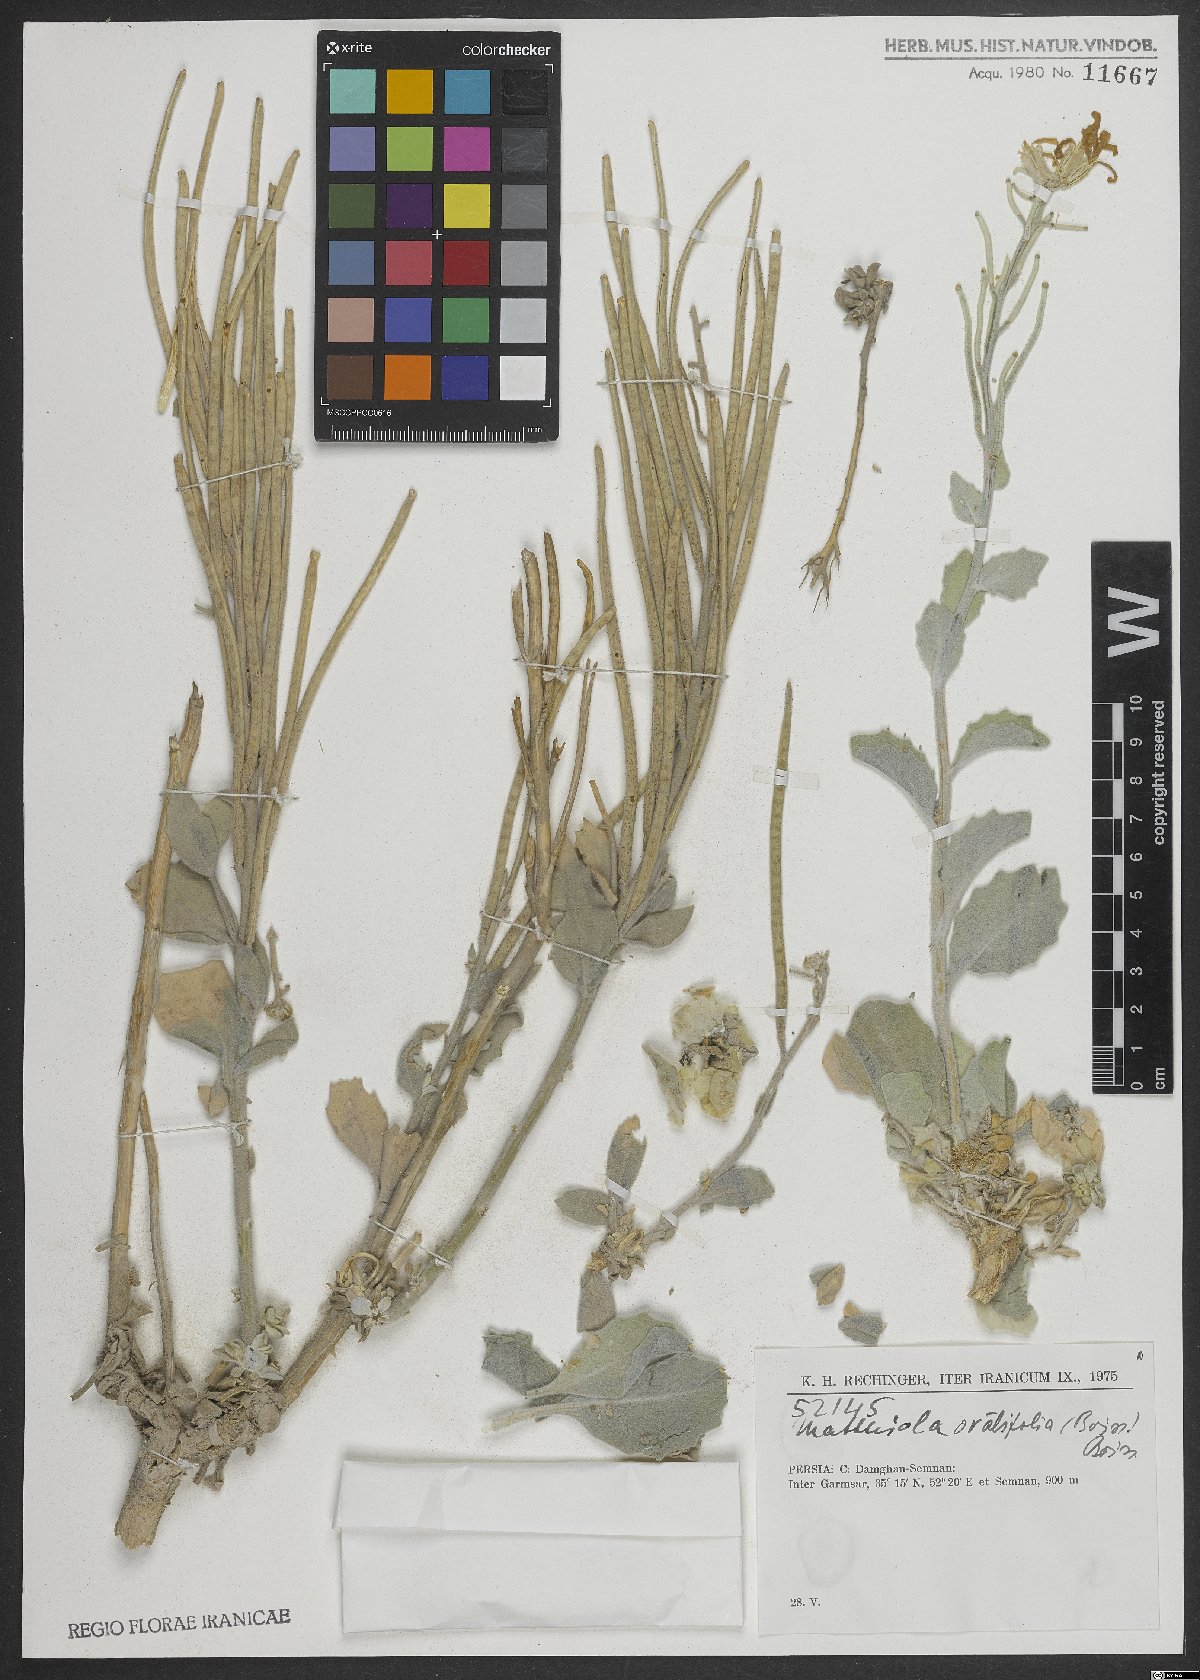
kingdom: Plantae
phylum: Tracheophyta
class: Magnoliopsida
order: Brassicales
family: Brassicaceae
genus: Matthiola
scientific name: Matthiola ovatifolia
